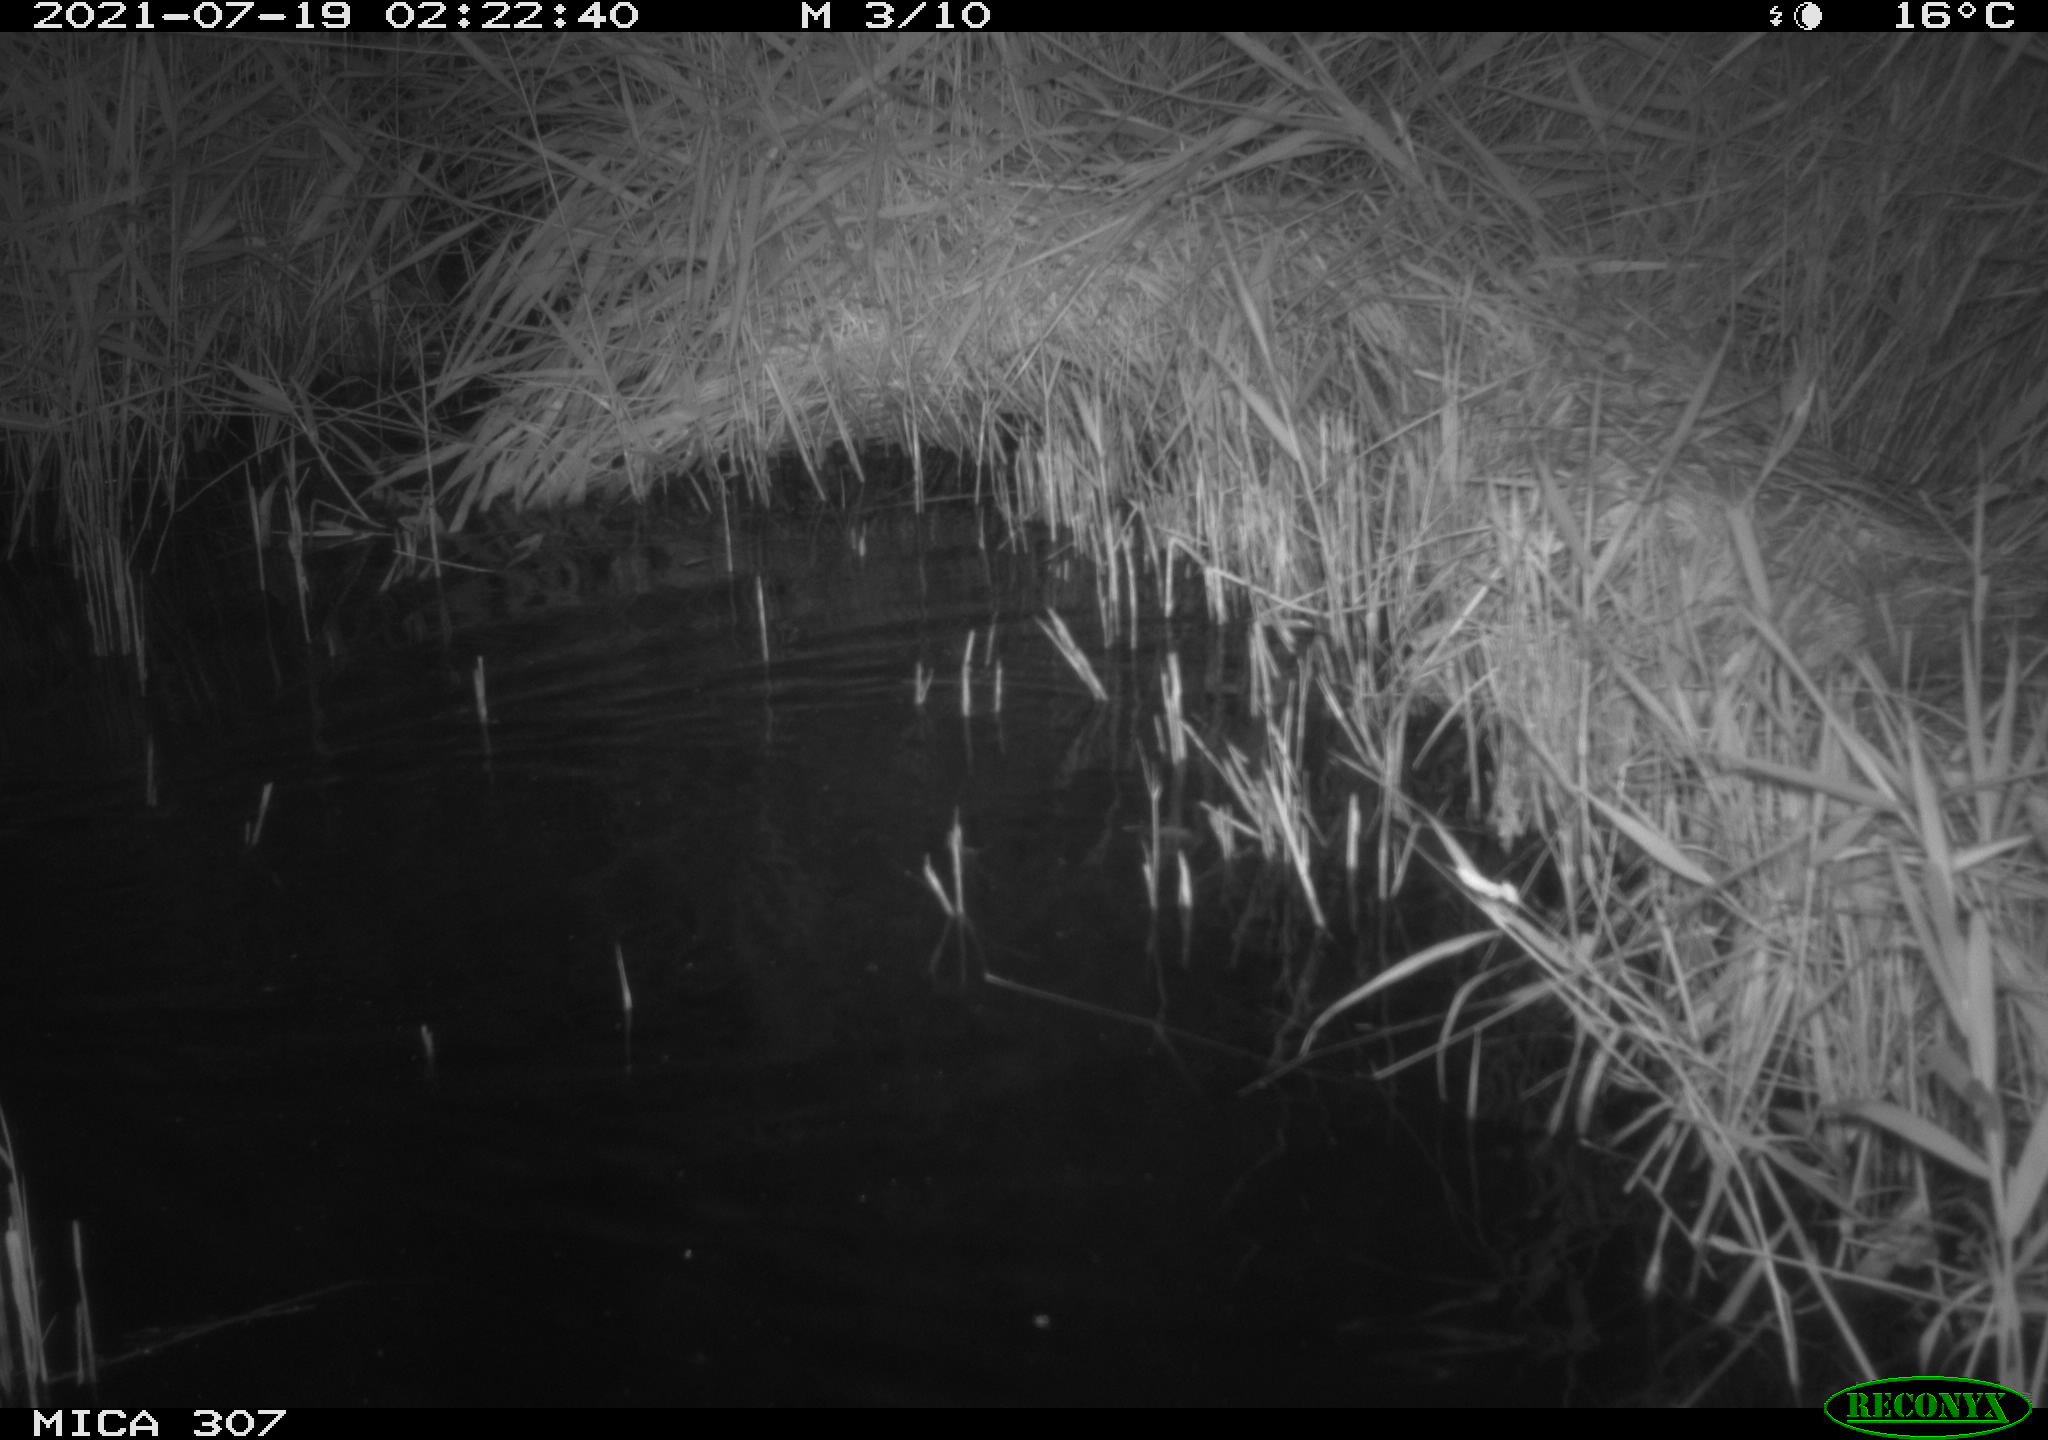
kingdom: Animalia
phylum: Chordata
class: Mammalia
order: Rodentia
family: Muridae
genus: Rattus
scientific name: Rattus norvegicus
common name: Brown rat
